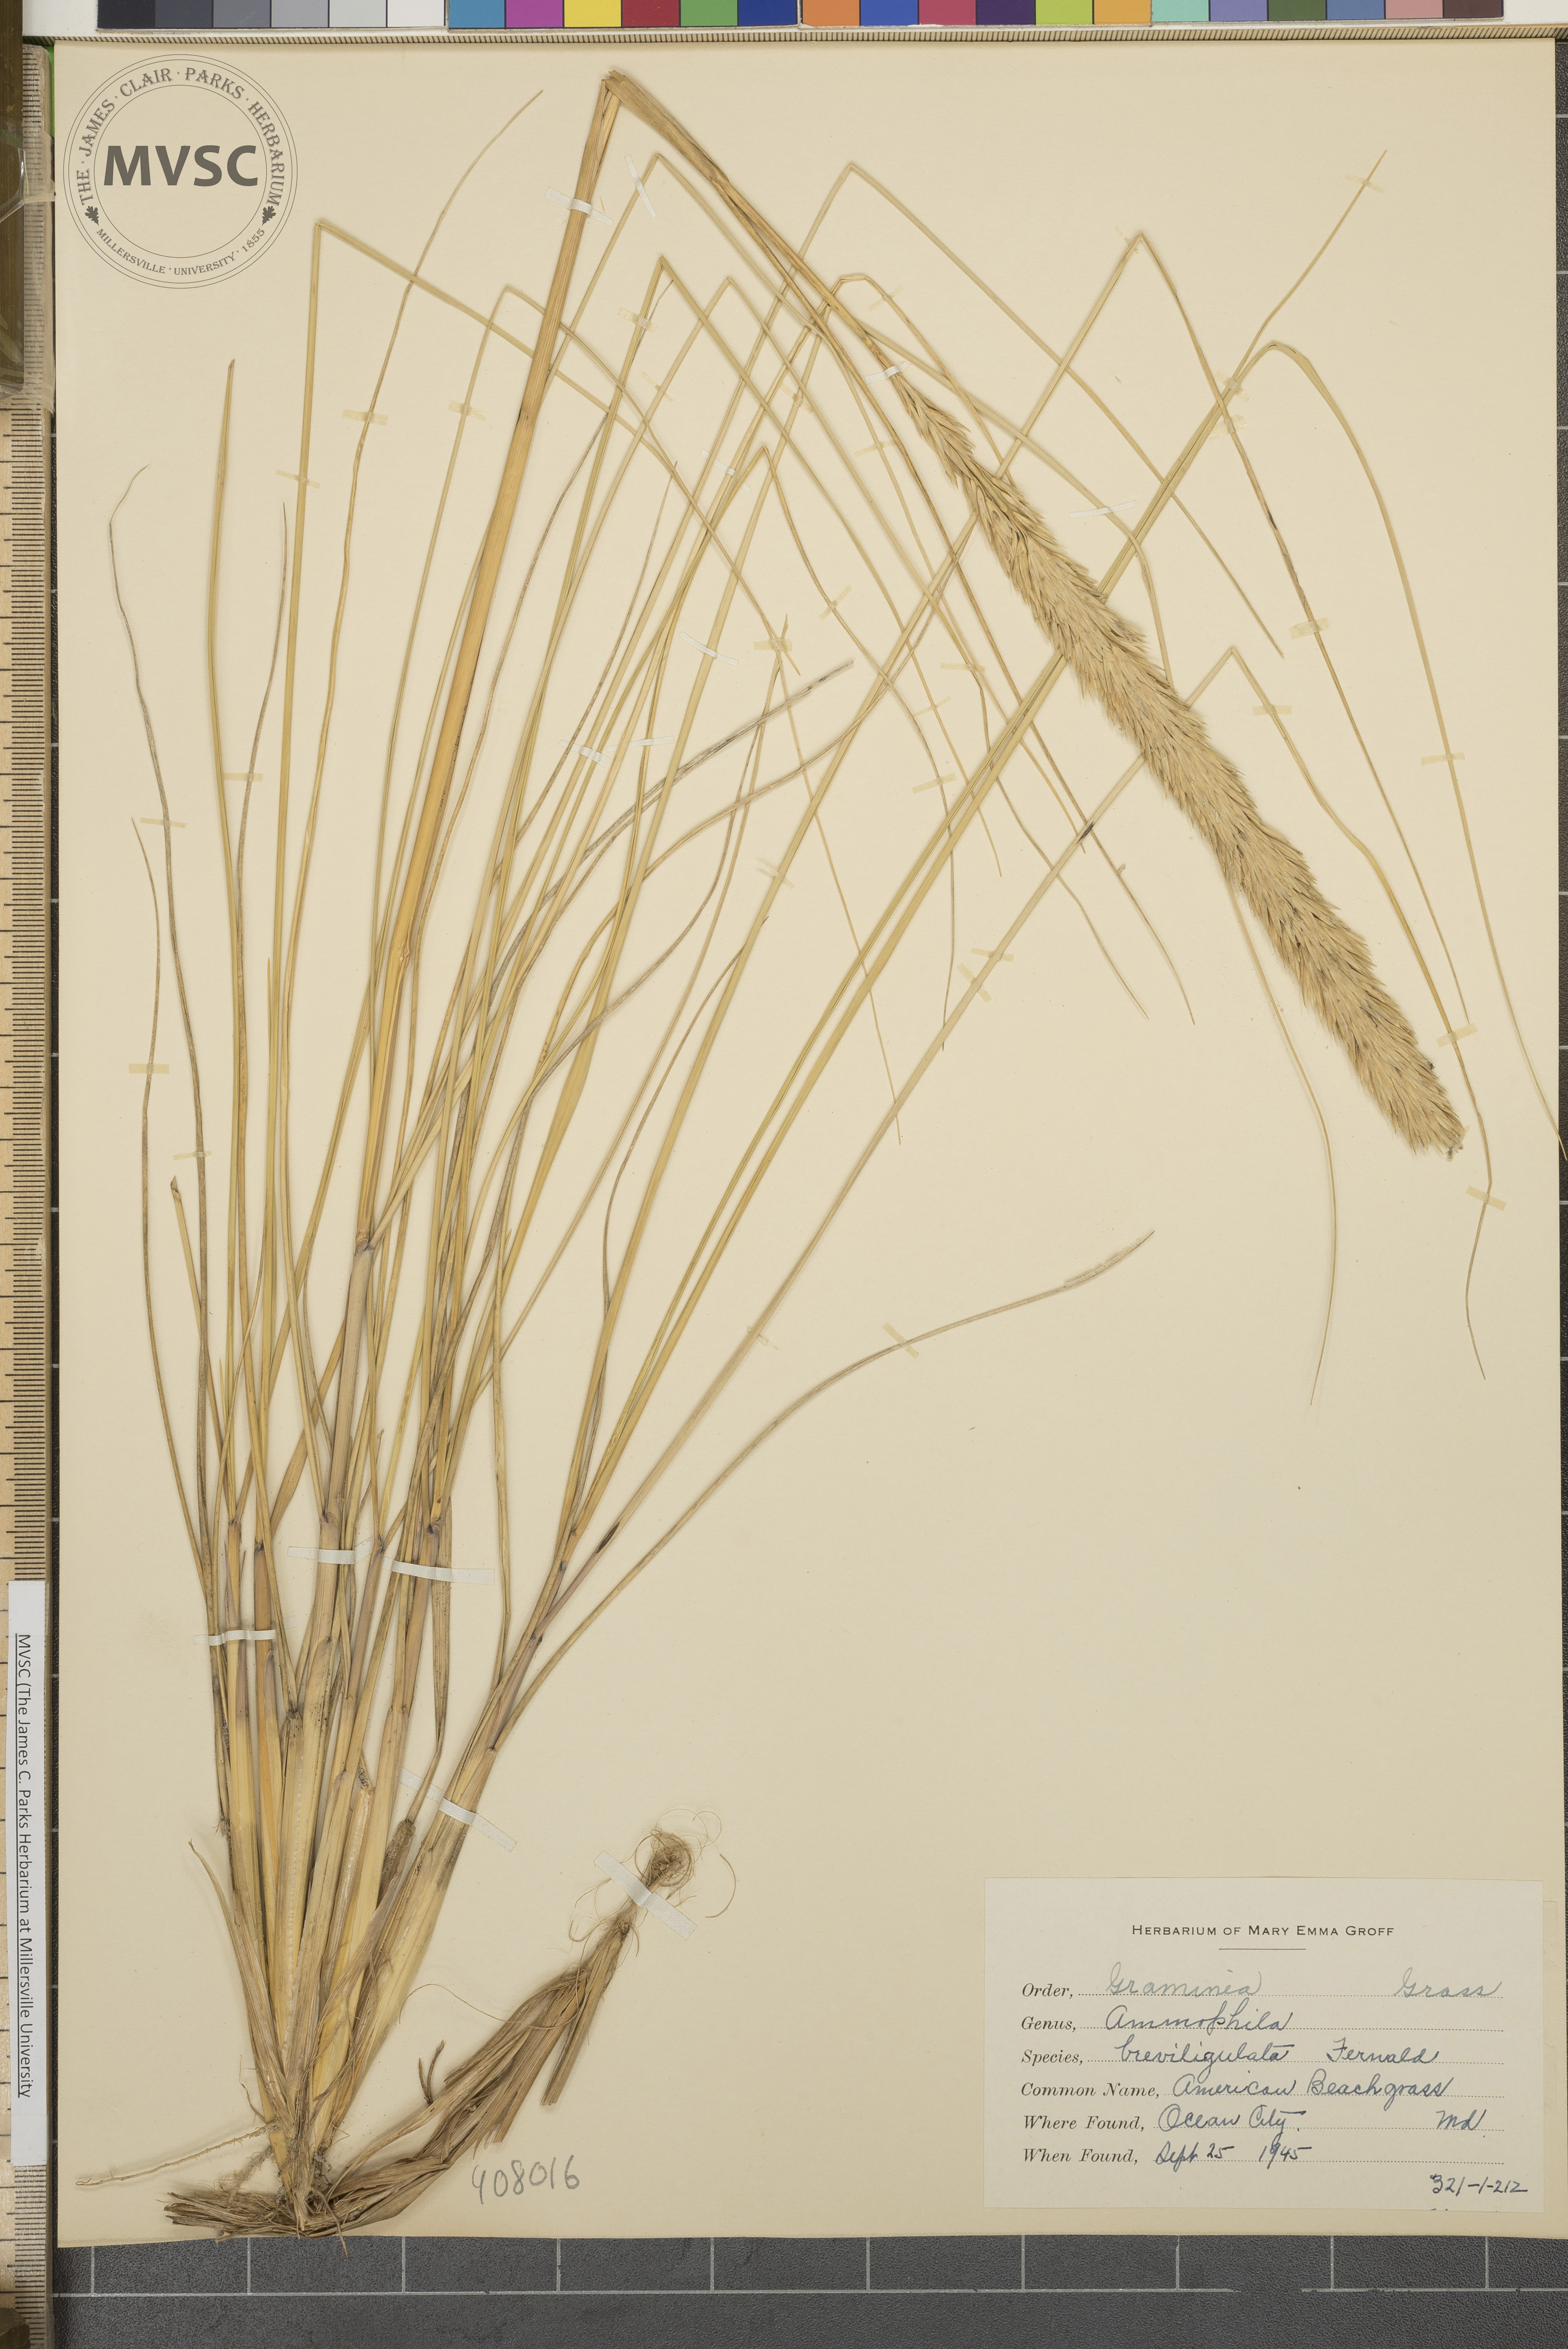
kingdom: Plantae
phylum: Tracheophyta
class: Liliopsida
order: Poales
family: Poaceae
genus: Calamagrostis
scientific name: Calamagrostis breviligulata
